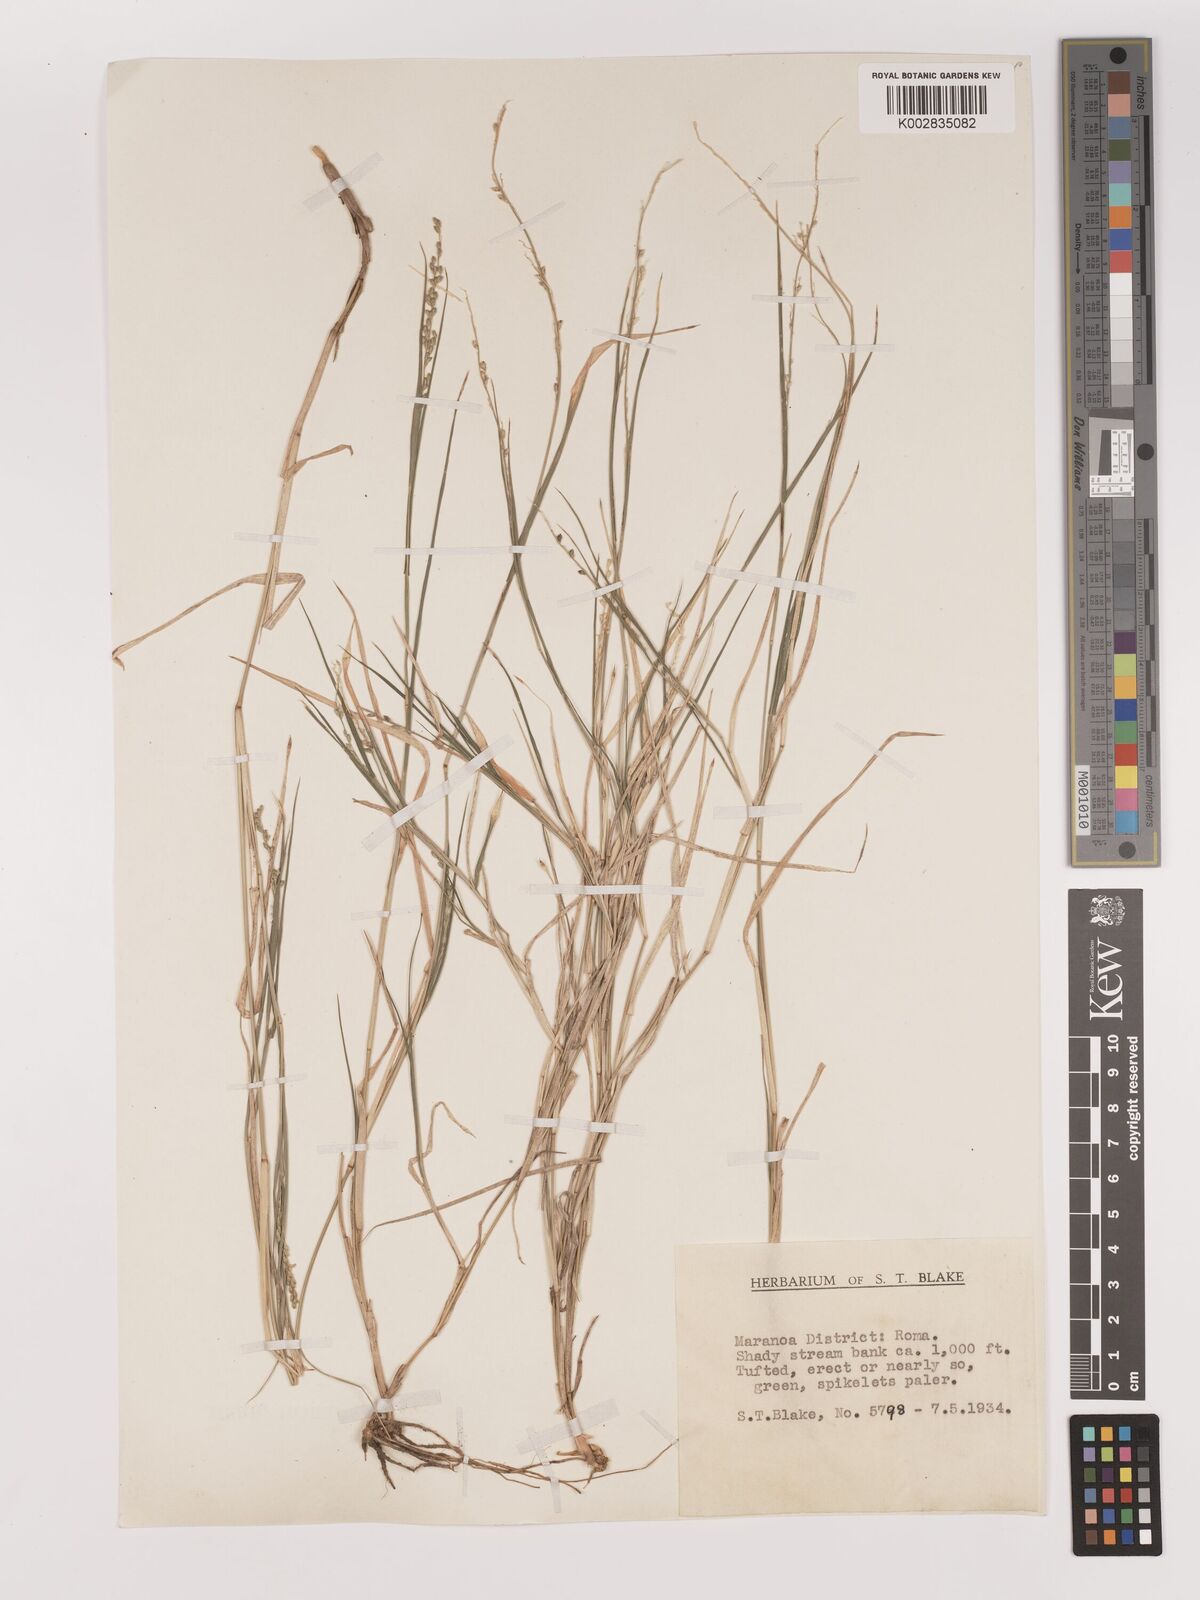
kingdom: Plantae
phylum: Tracheophyta
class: Liliopsida
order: Poales
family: Poaceae
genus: Setaria
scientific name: Setaria
